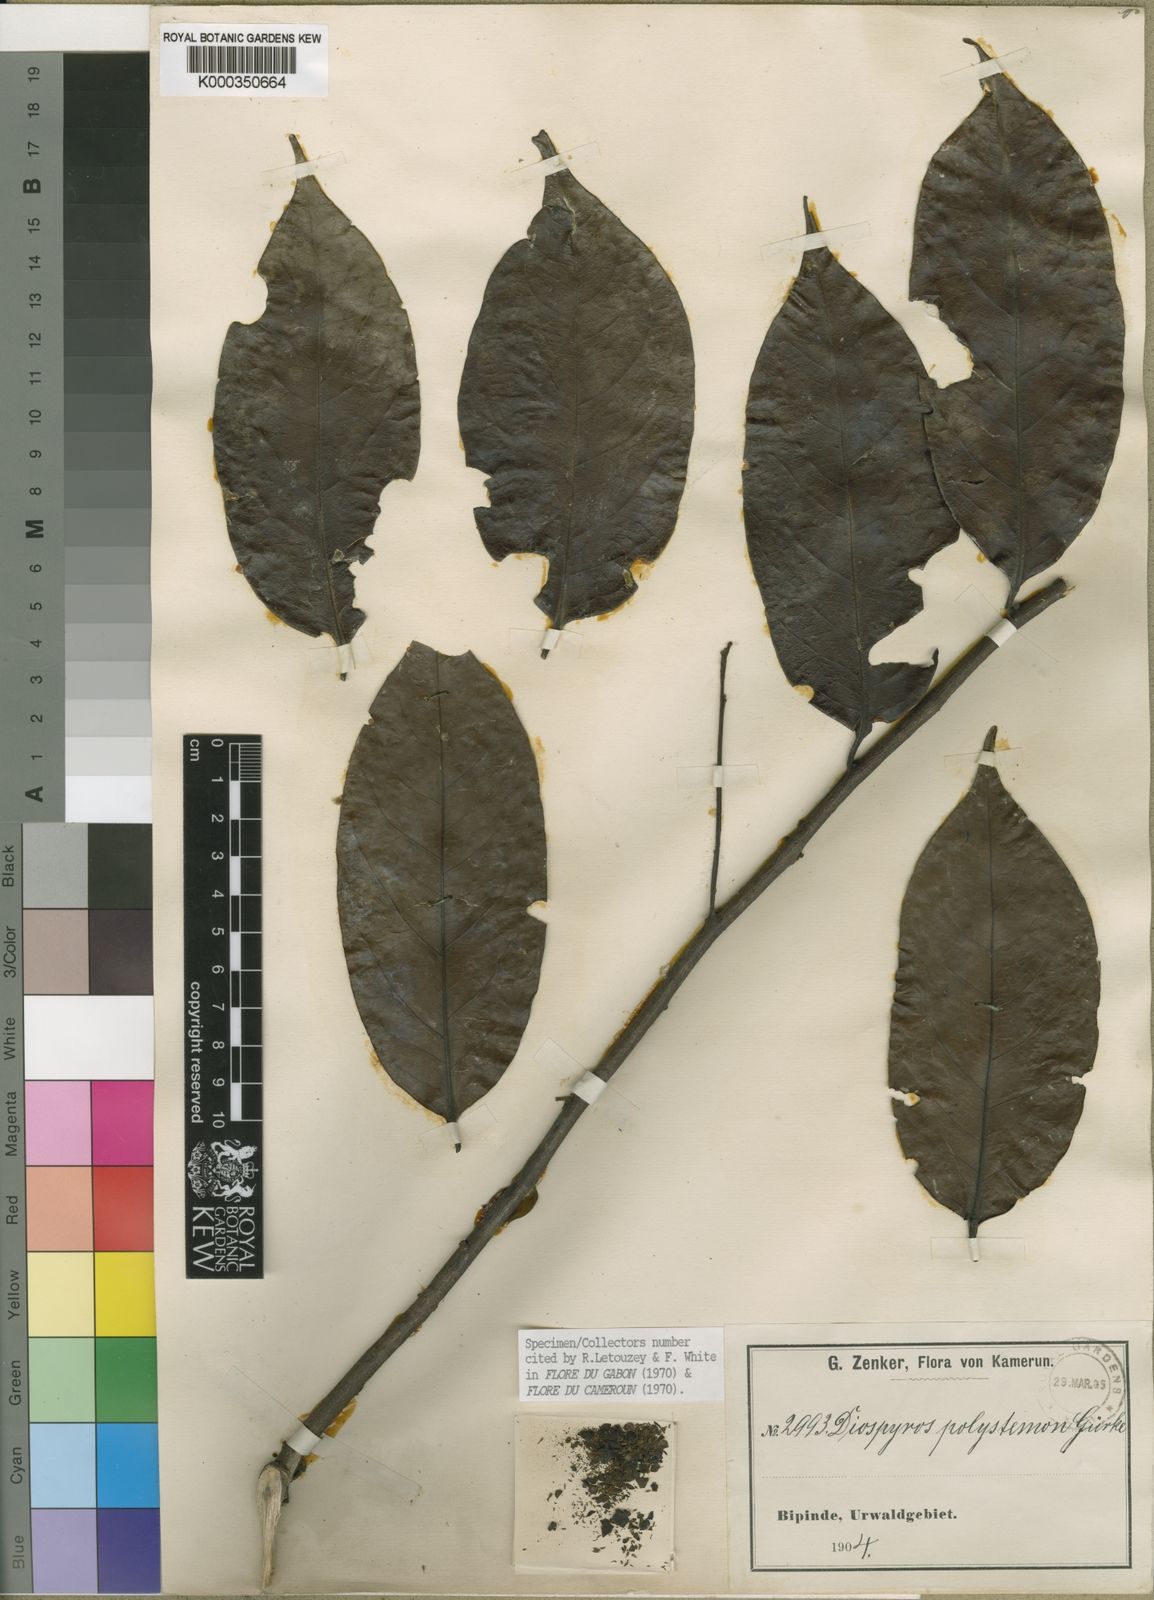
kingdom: Plantae
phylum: Tracheophyta
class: Magnoliopsida
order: Ericales
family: Ebenaceae
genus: Diospyros
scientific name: Diospyros
